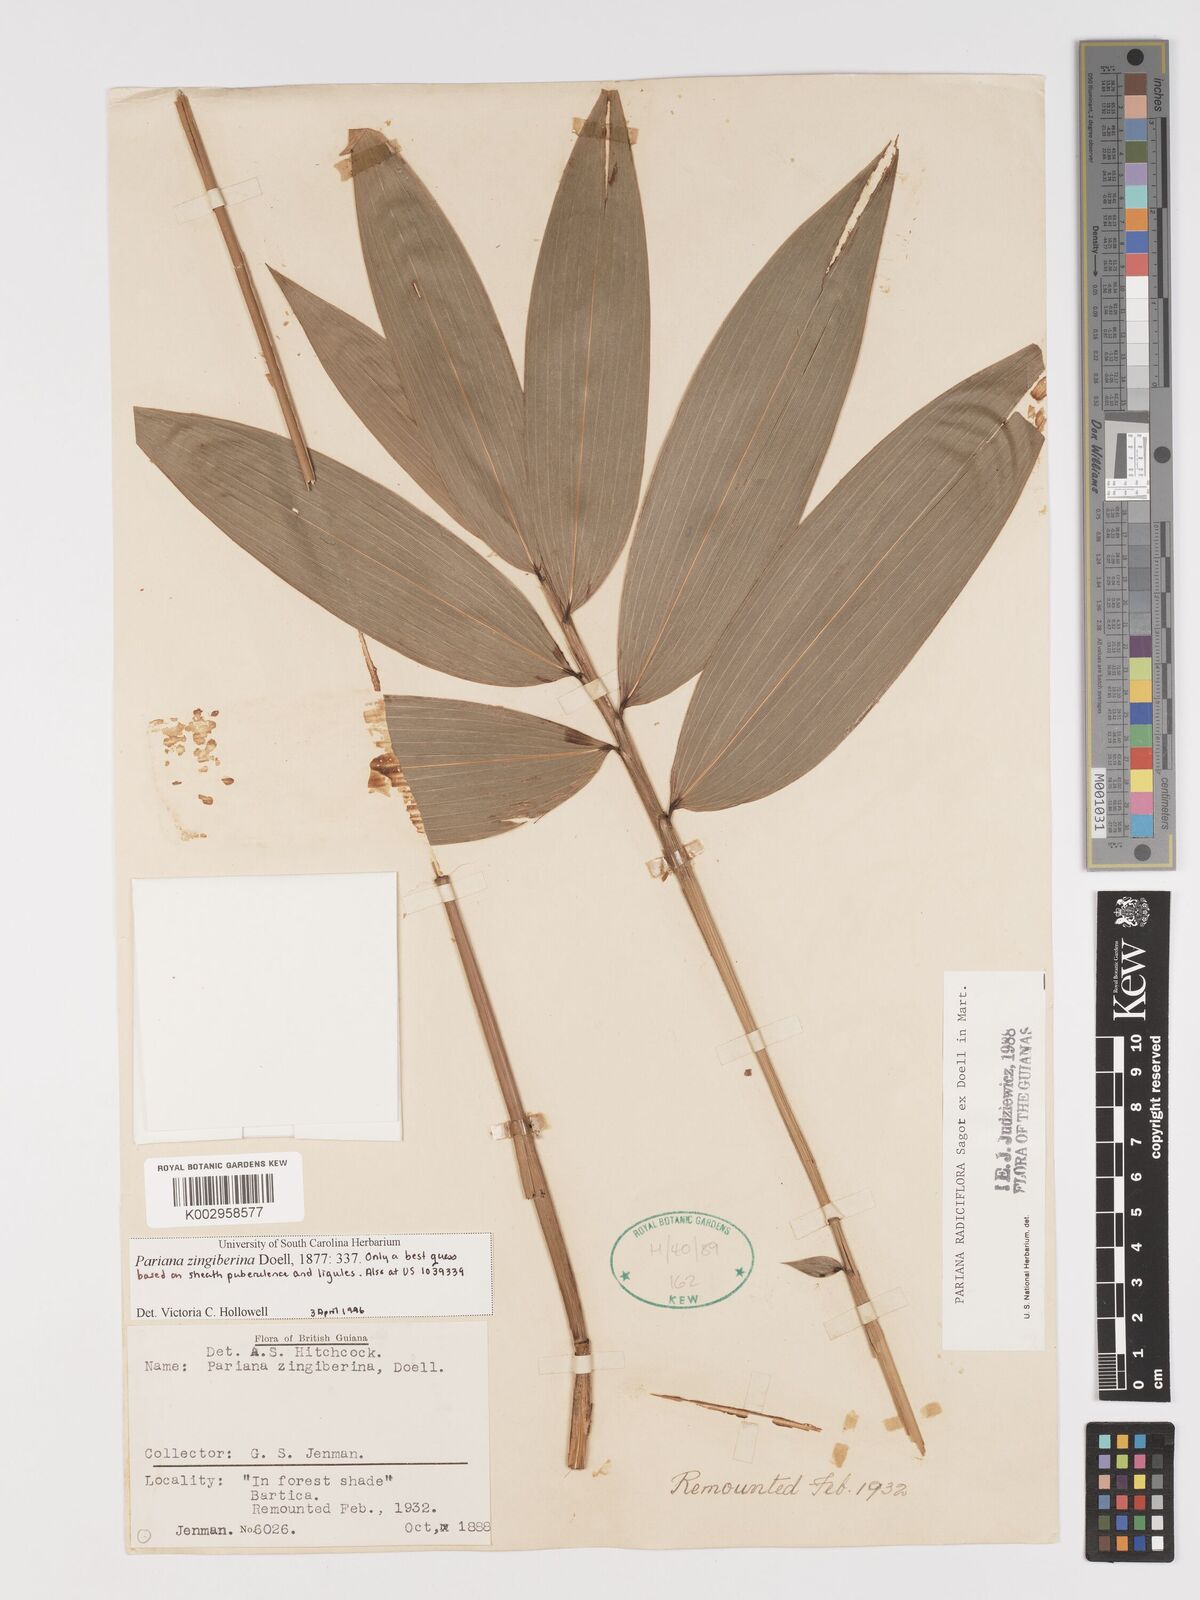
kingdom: Plantae
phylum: Tracheophyta
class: Liliopsida
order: Poales
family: Poaceae
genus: Pariana
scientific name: Pariana radiciflora
